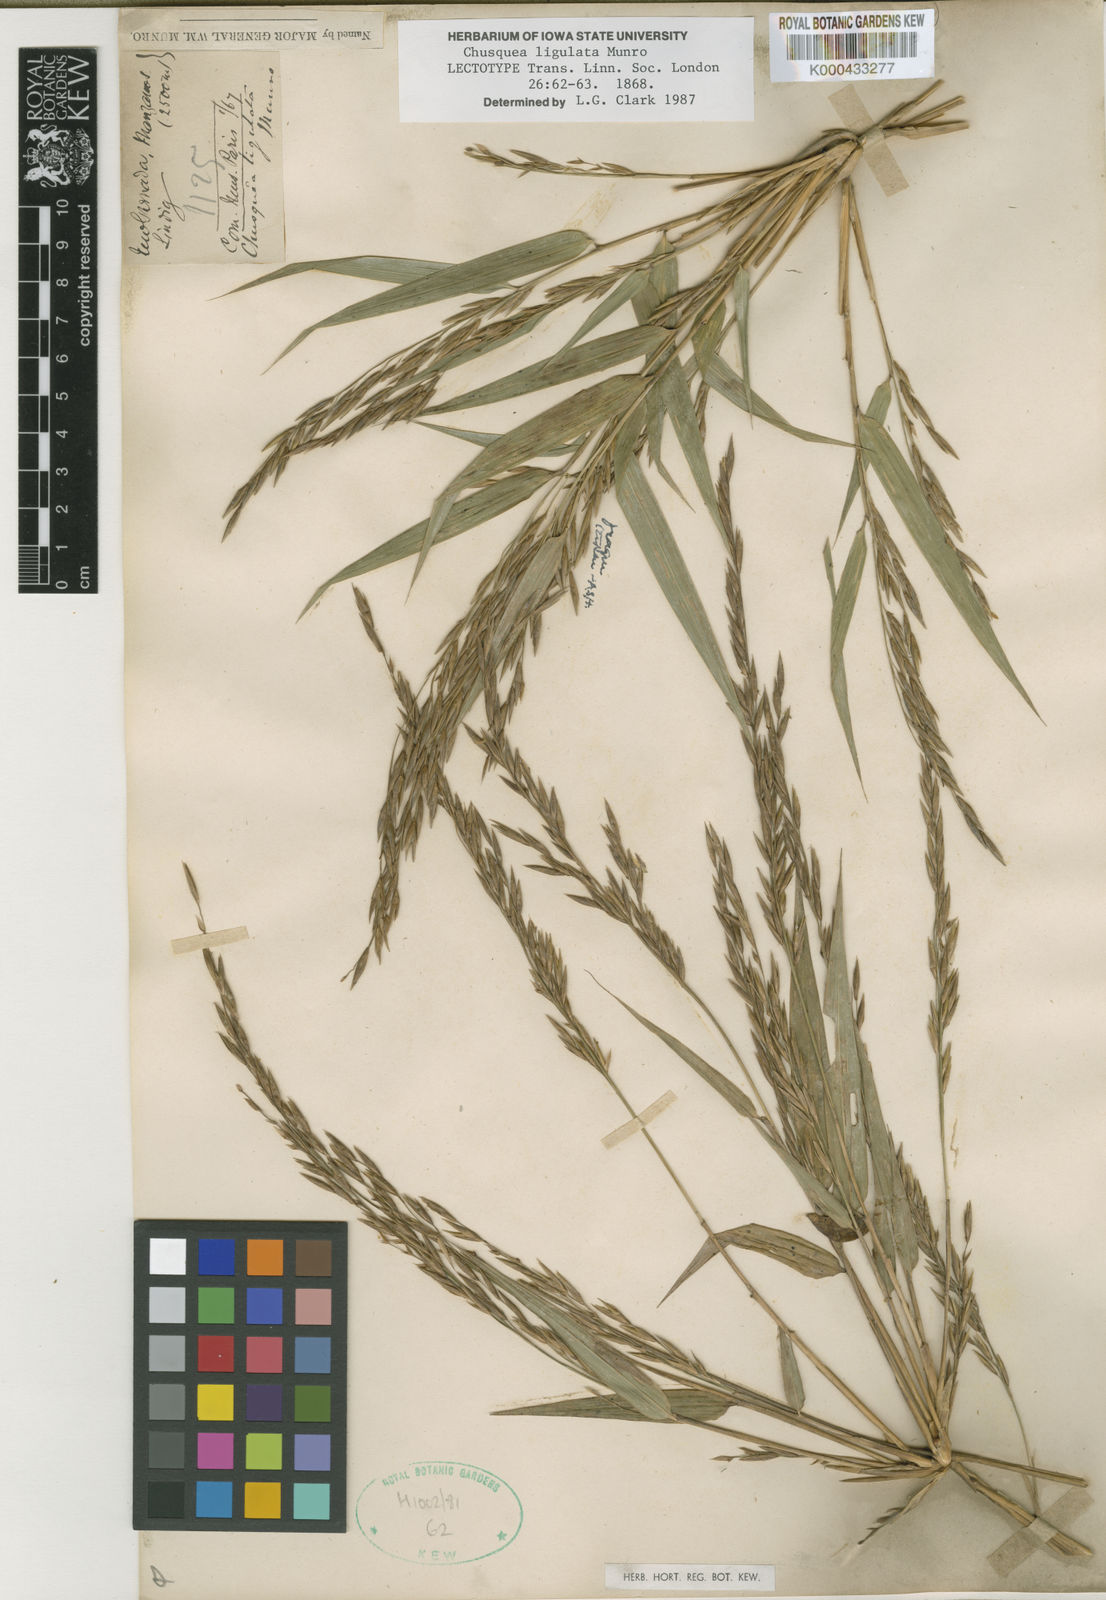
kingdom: Plantae
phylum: Tracheophyta
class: Liliopsida
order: Poales
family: Poaceae
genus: Chusquea
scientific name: Chusquea ligulata
